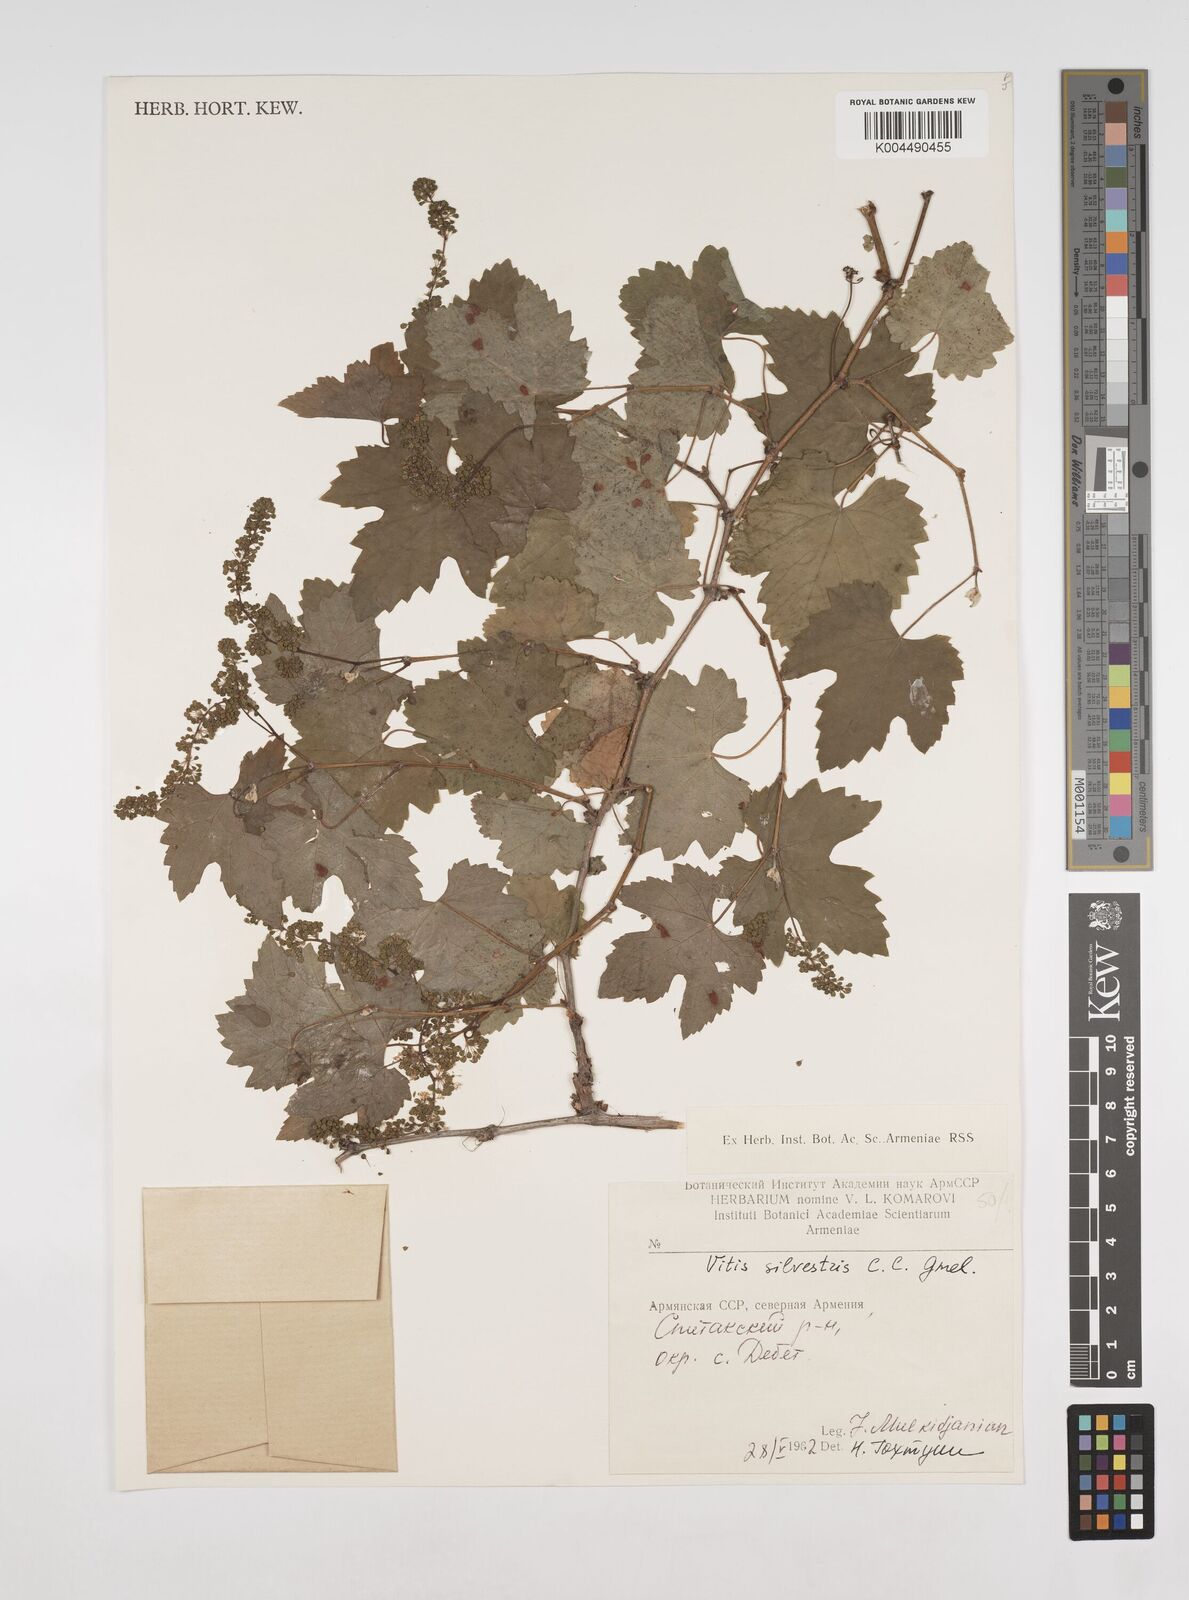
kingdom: Plantae
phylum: Tracheophyta
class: Magnoliopsida
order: Vitales
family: Vitaceae
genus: Vitis
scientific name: Vitis
